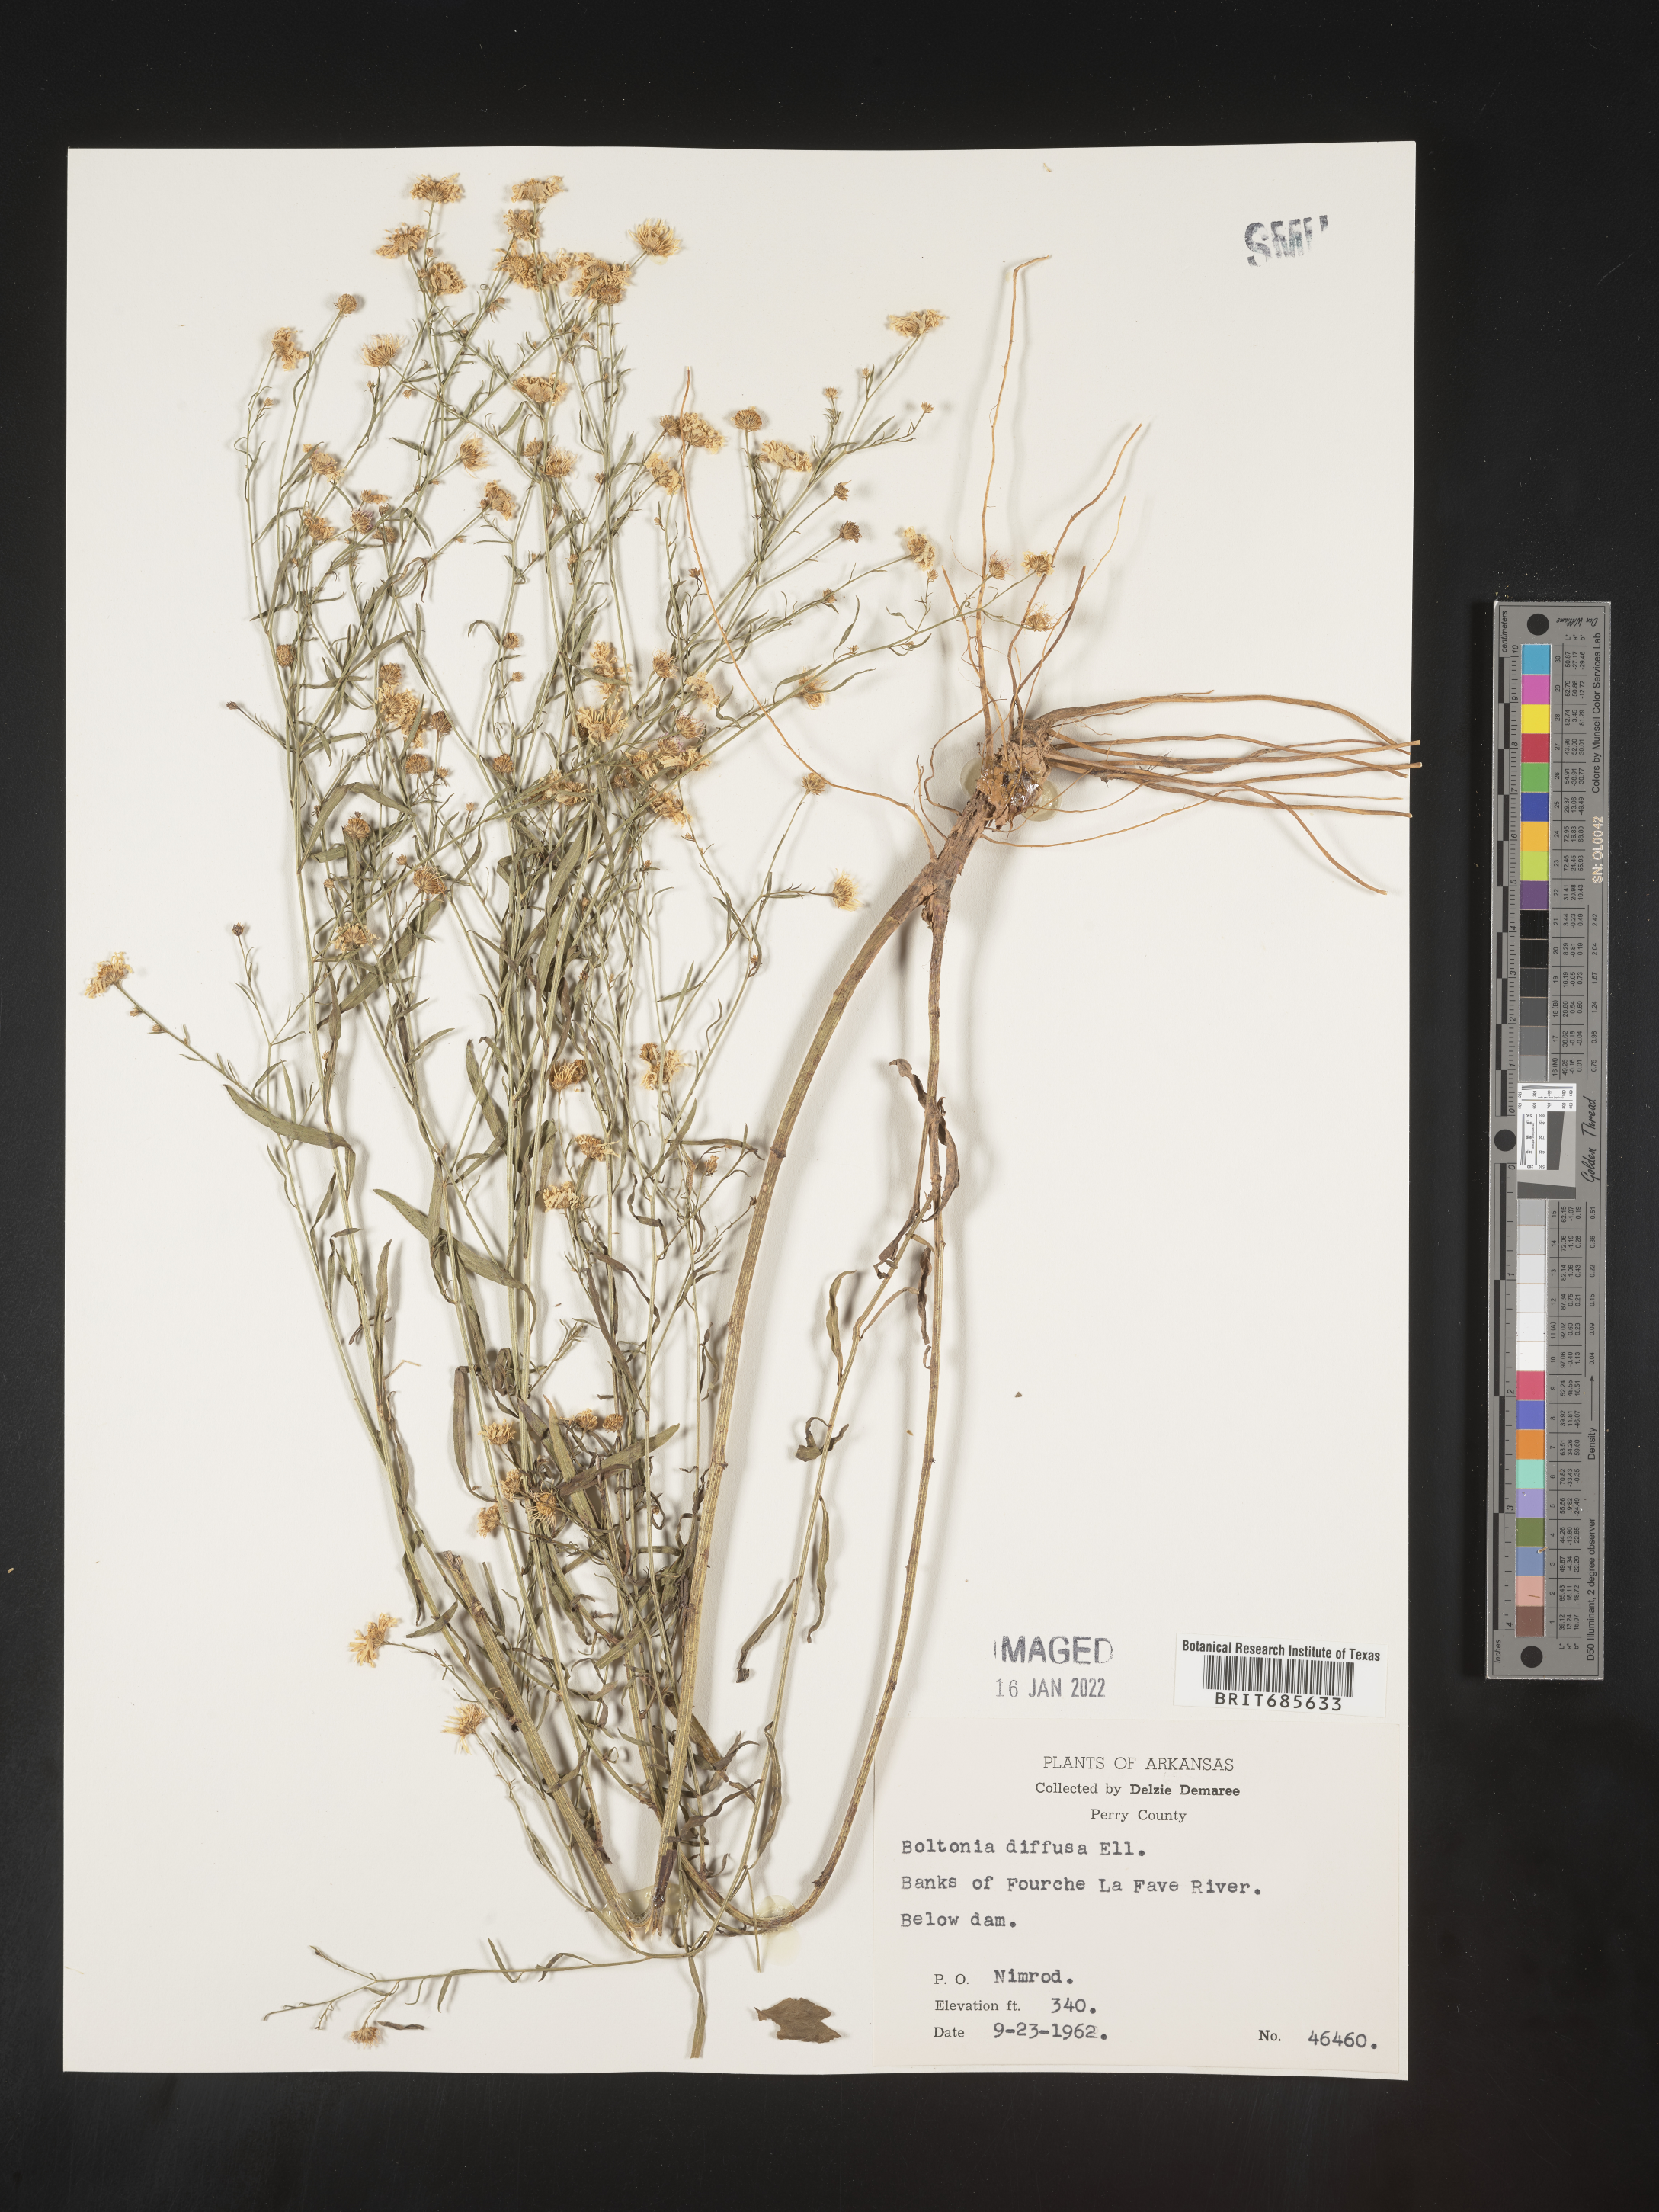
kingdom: Plantae
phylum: Tracheophyta
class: Magnoliopsida
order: Asterales
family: Asteraceae
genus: Boltonia
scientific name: Boltonia diffusa
